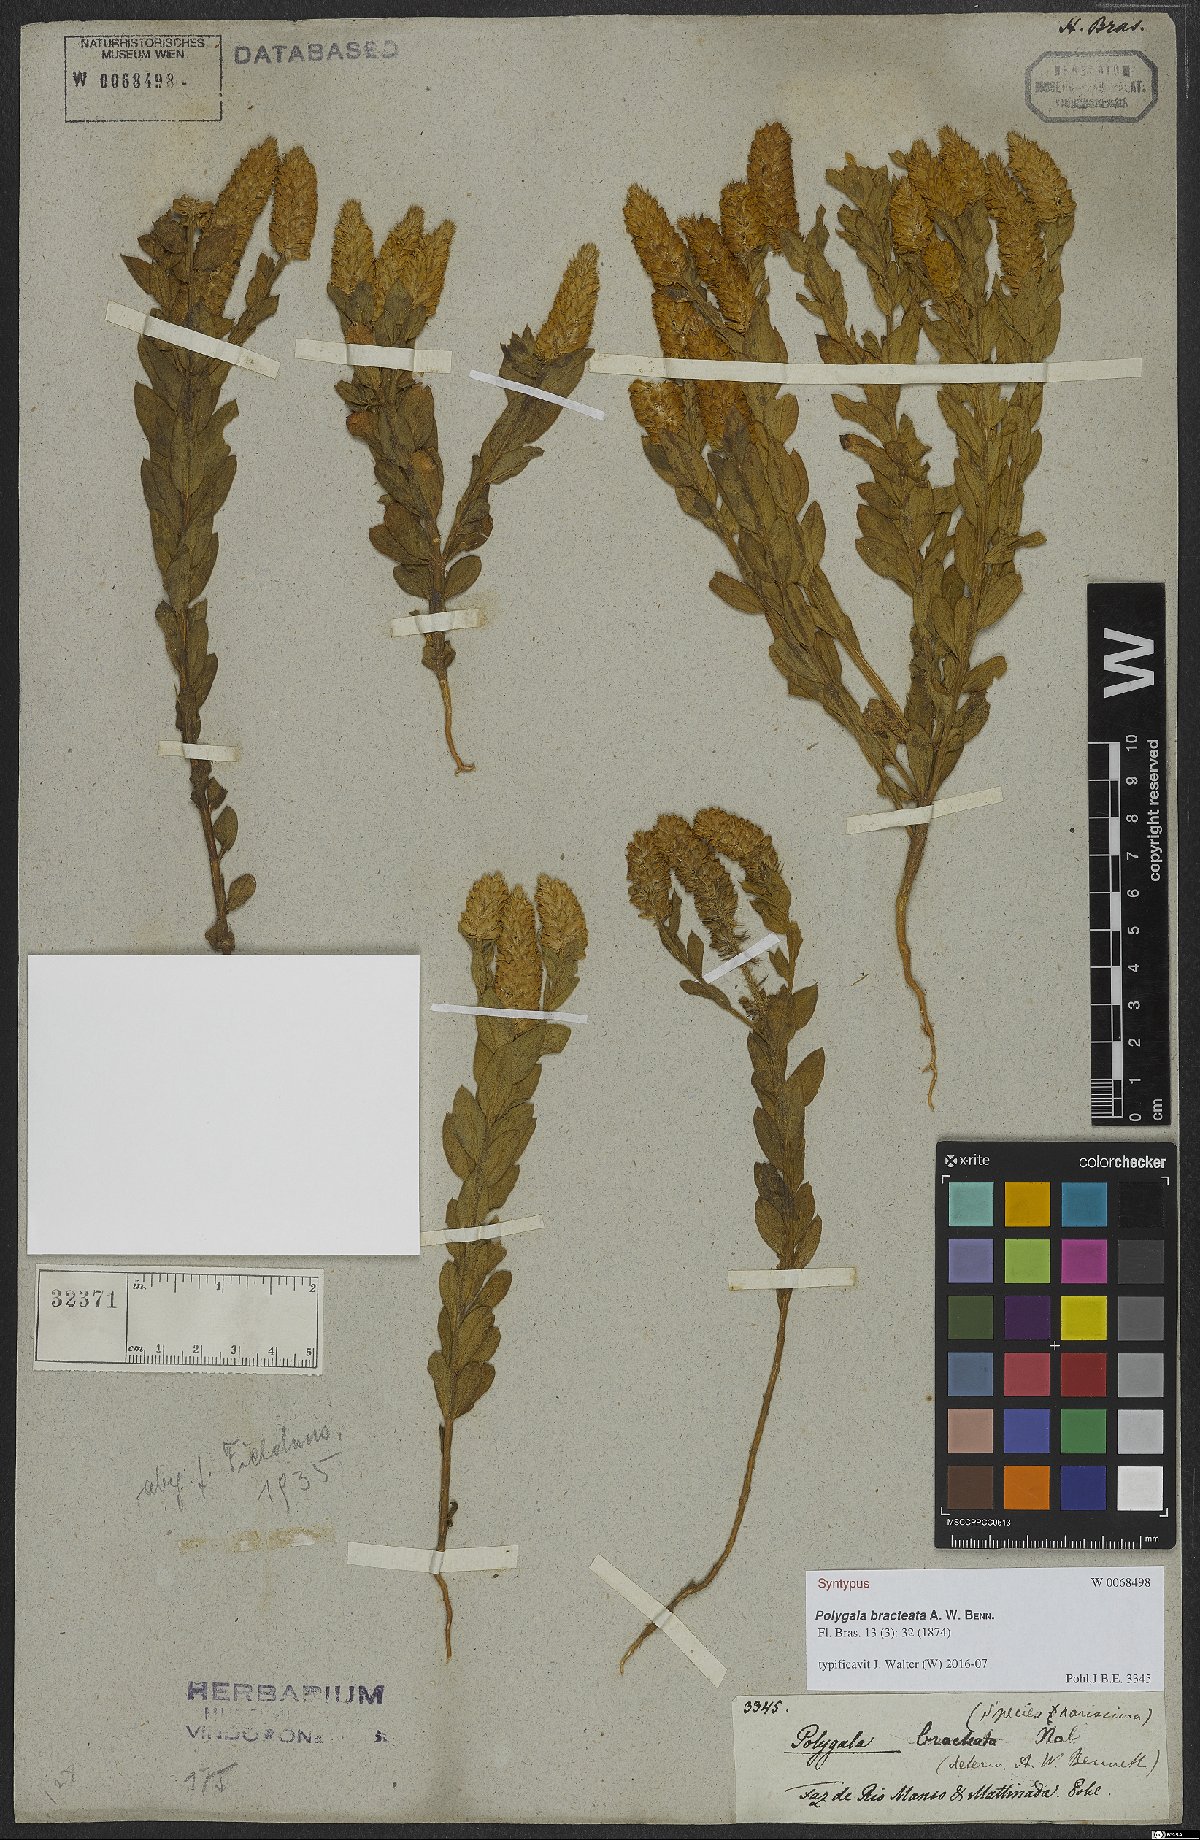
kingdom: Plantae
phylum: Tracheophyta
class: Magnoliopsida
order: Fabales
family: Polygalaceae
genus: Polygala
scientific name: Polygala bracteata
